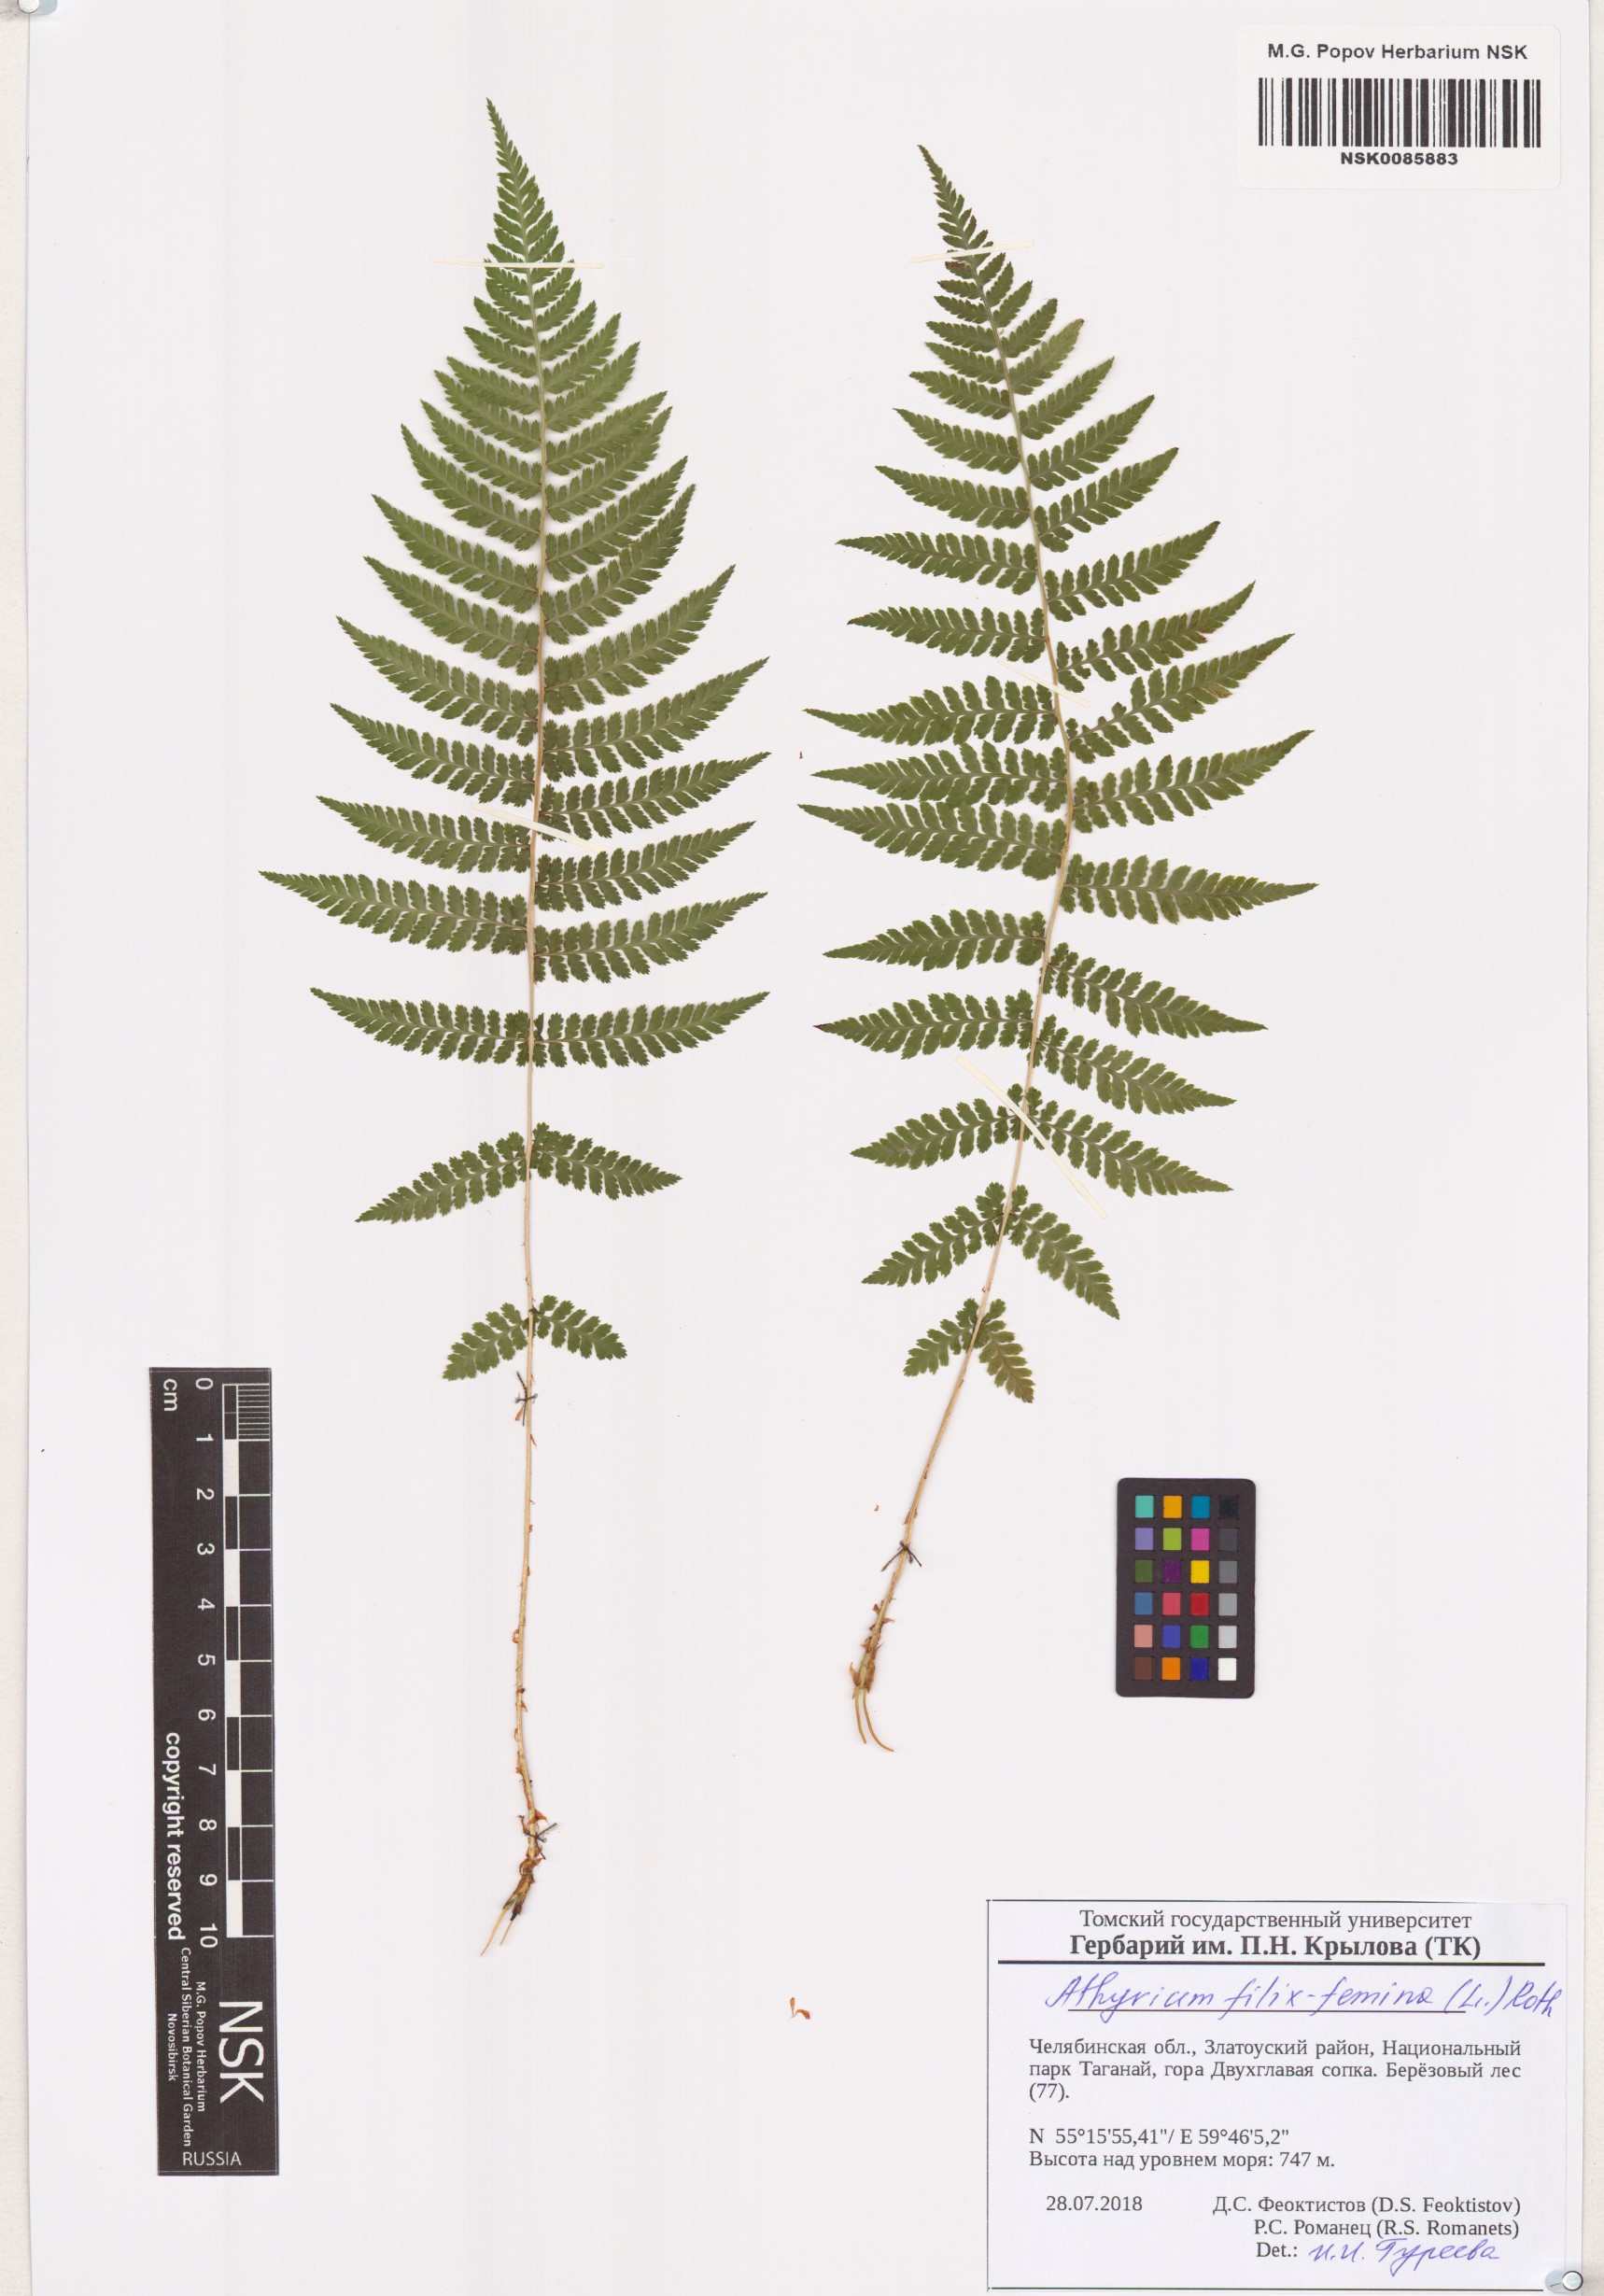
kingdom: Plantae
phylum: Tracheophyta
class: Polypodiopsida
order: Polypodiales
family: Athyriaceae
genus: Athyrium
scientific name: Athyrium filix-femina
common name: Lady fern
